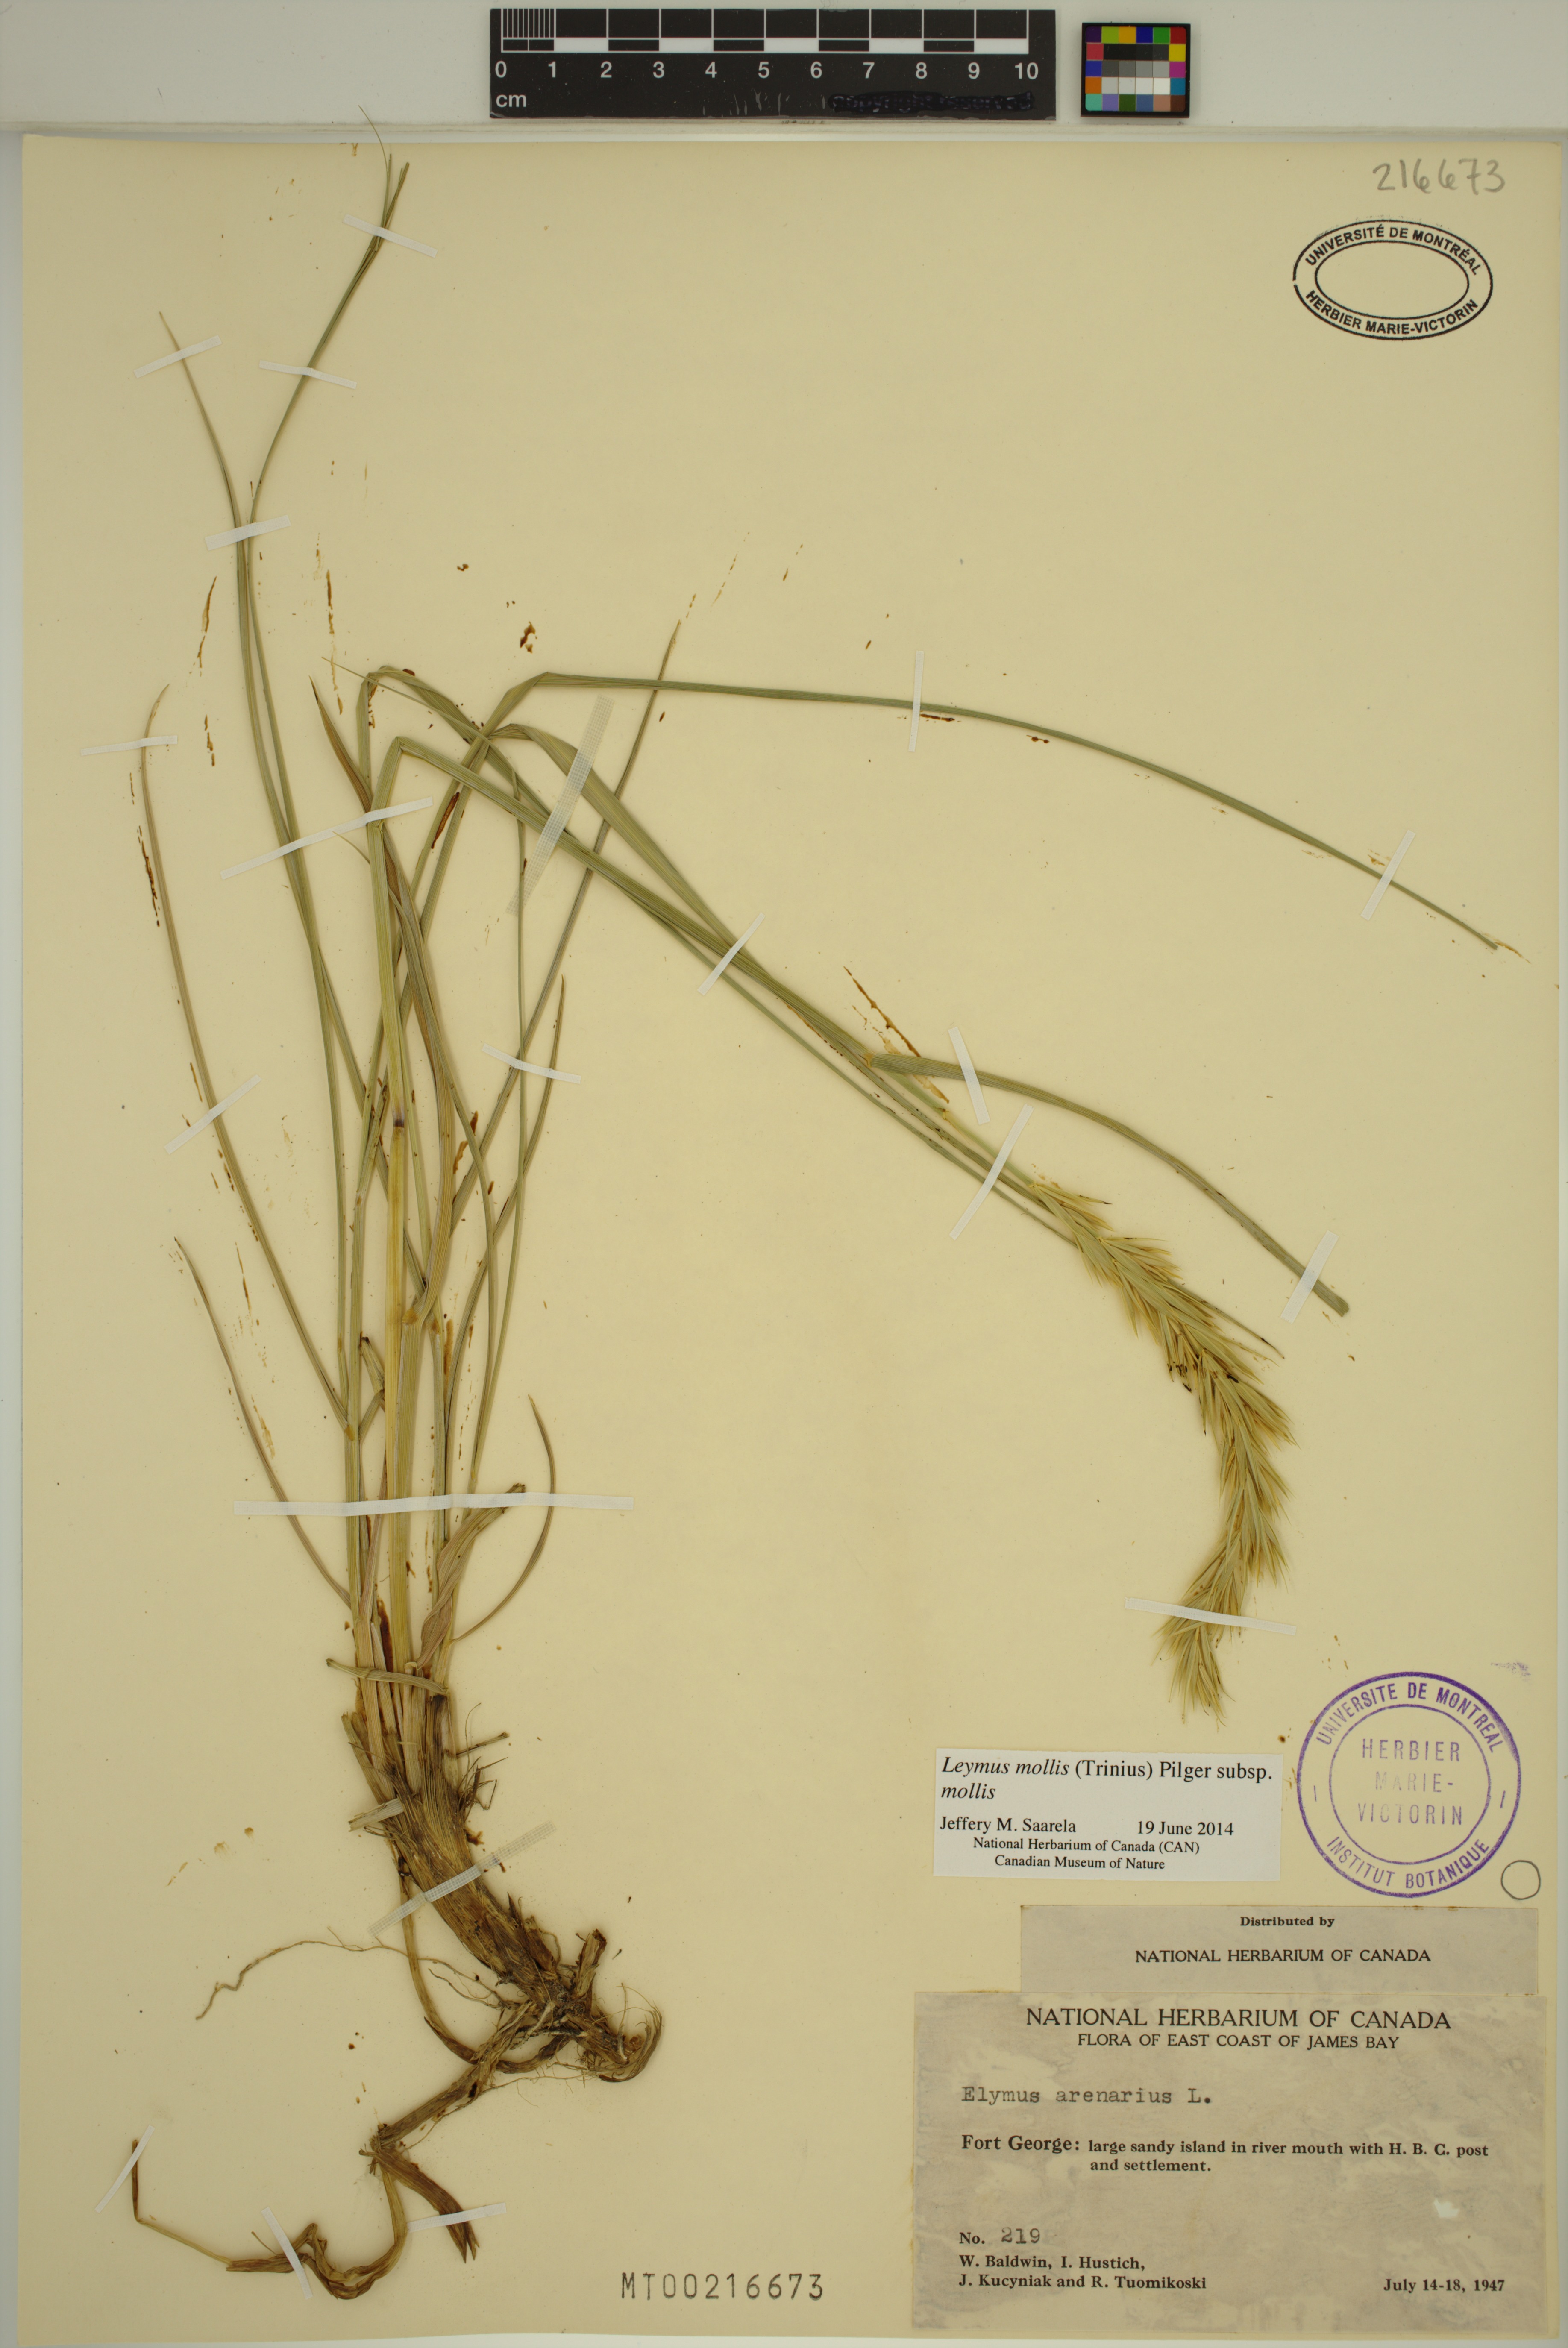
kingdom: Plantae
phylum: Tracheophyta
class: Liliopsida
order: Poales
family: Poaceae
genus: Leymus
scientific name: Leymus mollis
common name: American dune grass
